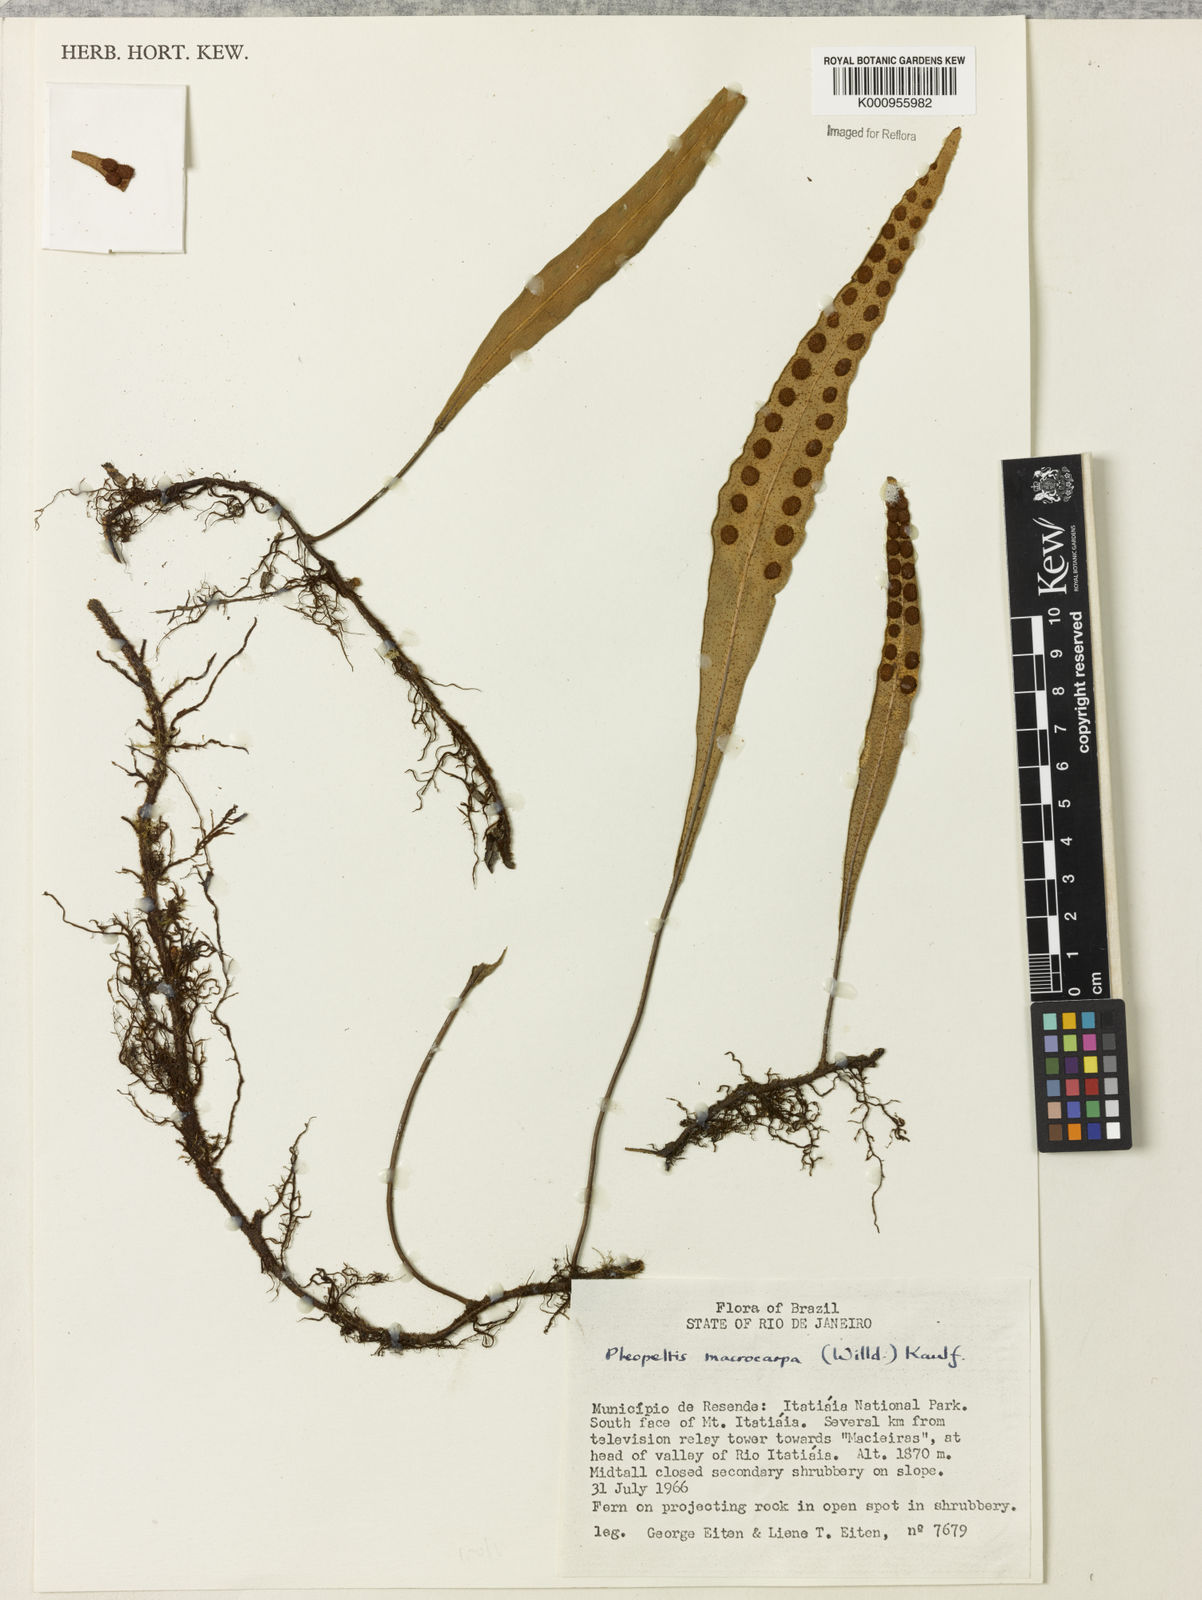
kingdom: Plantae
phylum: Tracheophyta
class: Polypodiopsida
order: Polypodiales
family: Polypodiaceae
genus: Pleopeltis
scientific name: Pleopeltis
